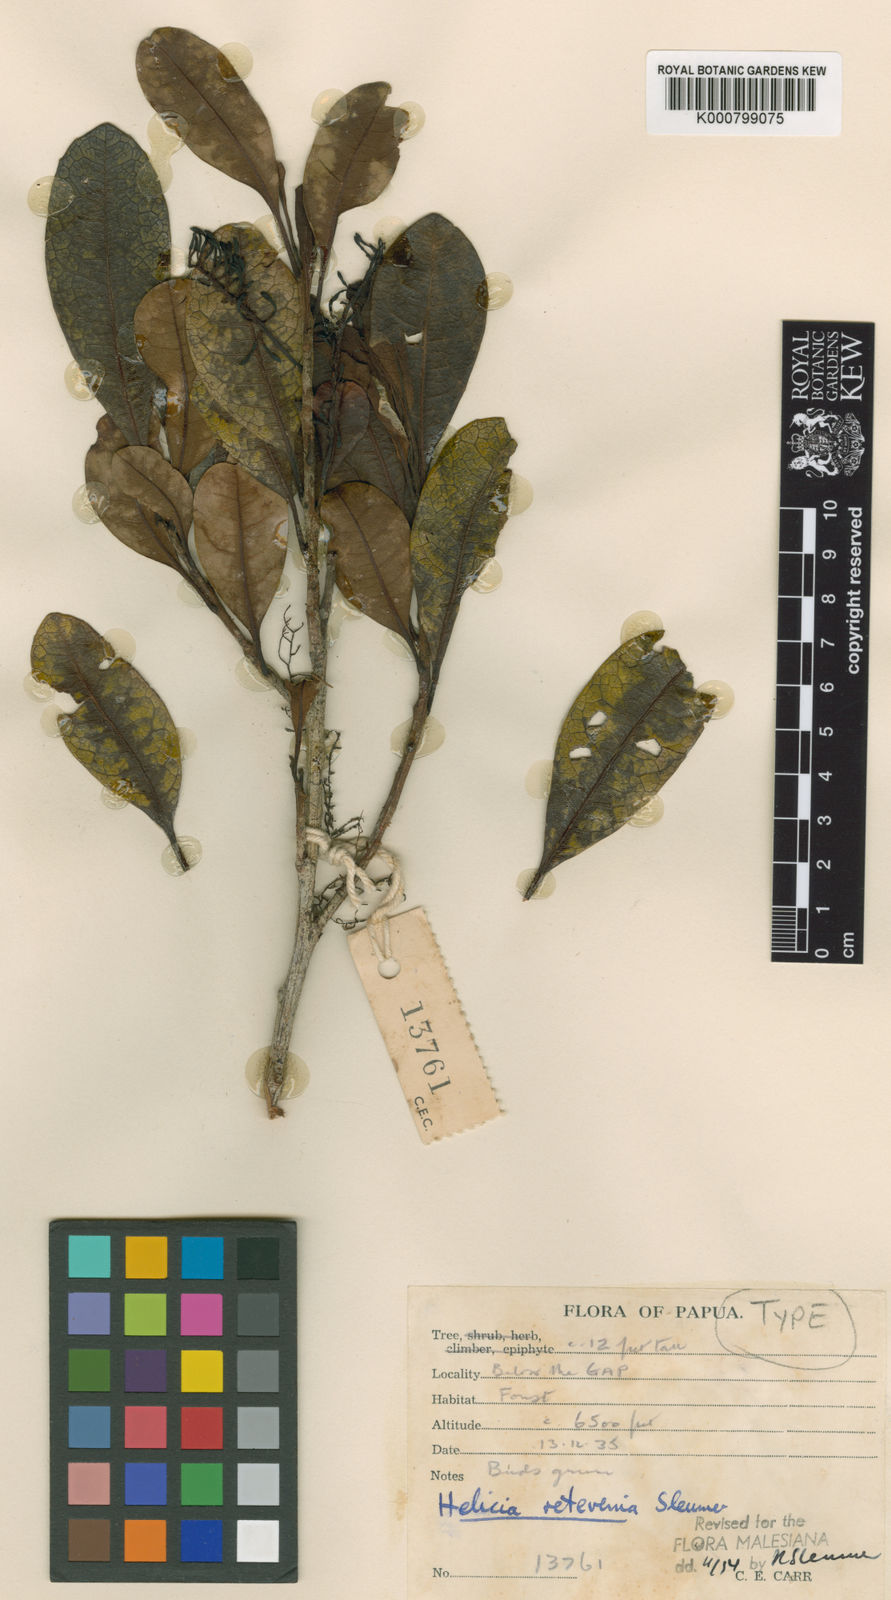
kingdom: Plantae
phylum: Tracheophyta
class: Magnoliopsida
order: Proteales
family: Proteaceae
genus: Helicia
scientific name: Helicia retivenia
